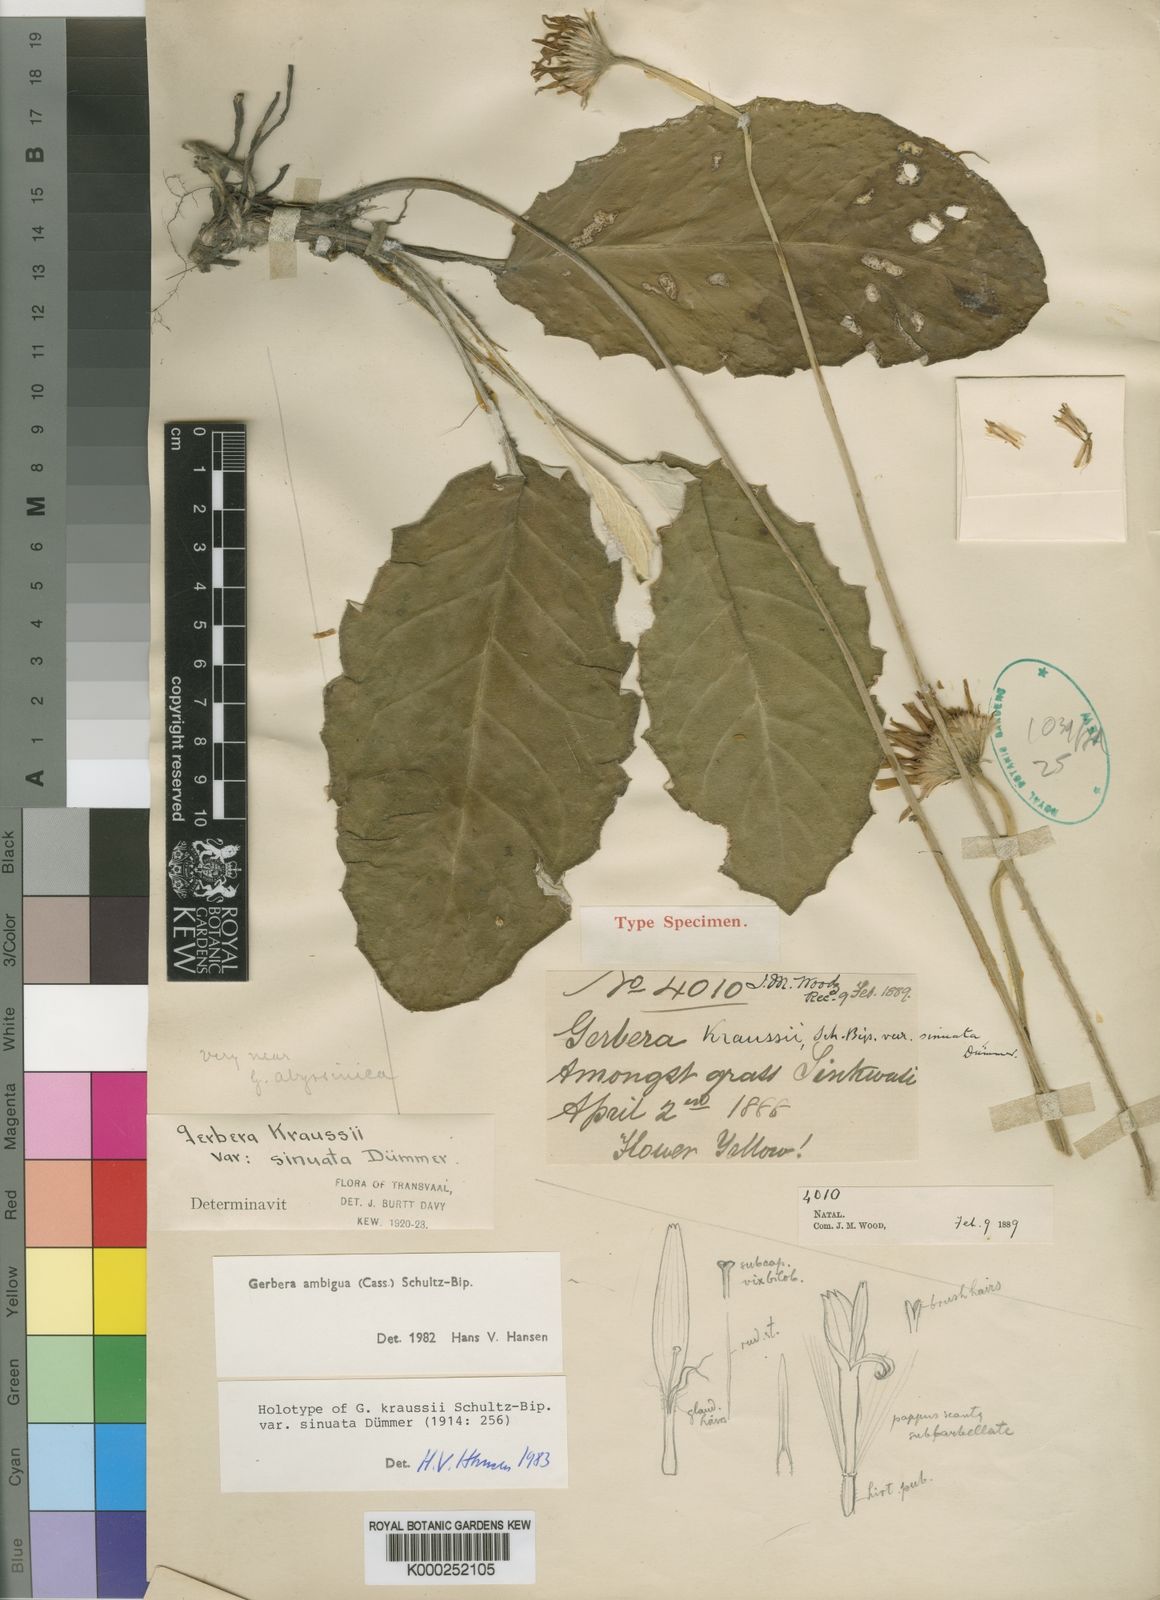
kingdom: Plantae
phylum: Tracheophyta
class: Magnoliopsida
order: Asterales
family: Asteraceae
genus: Gerbera
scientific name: Gerbera ambigua
